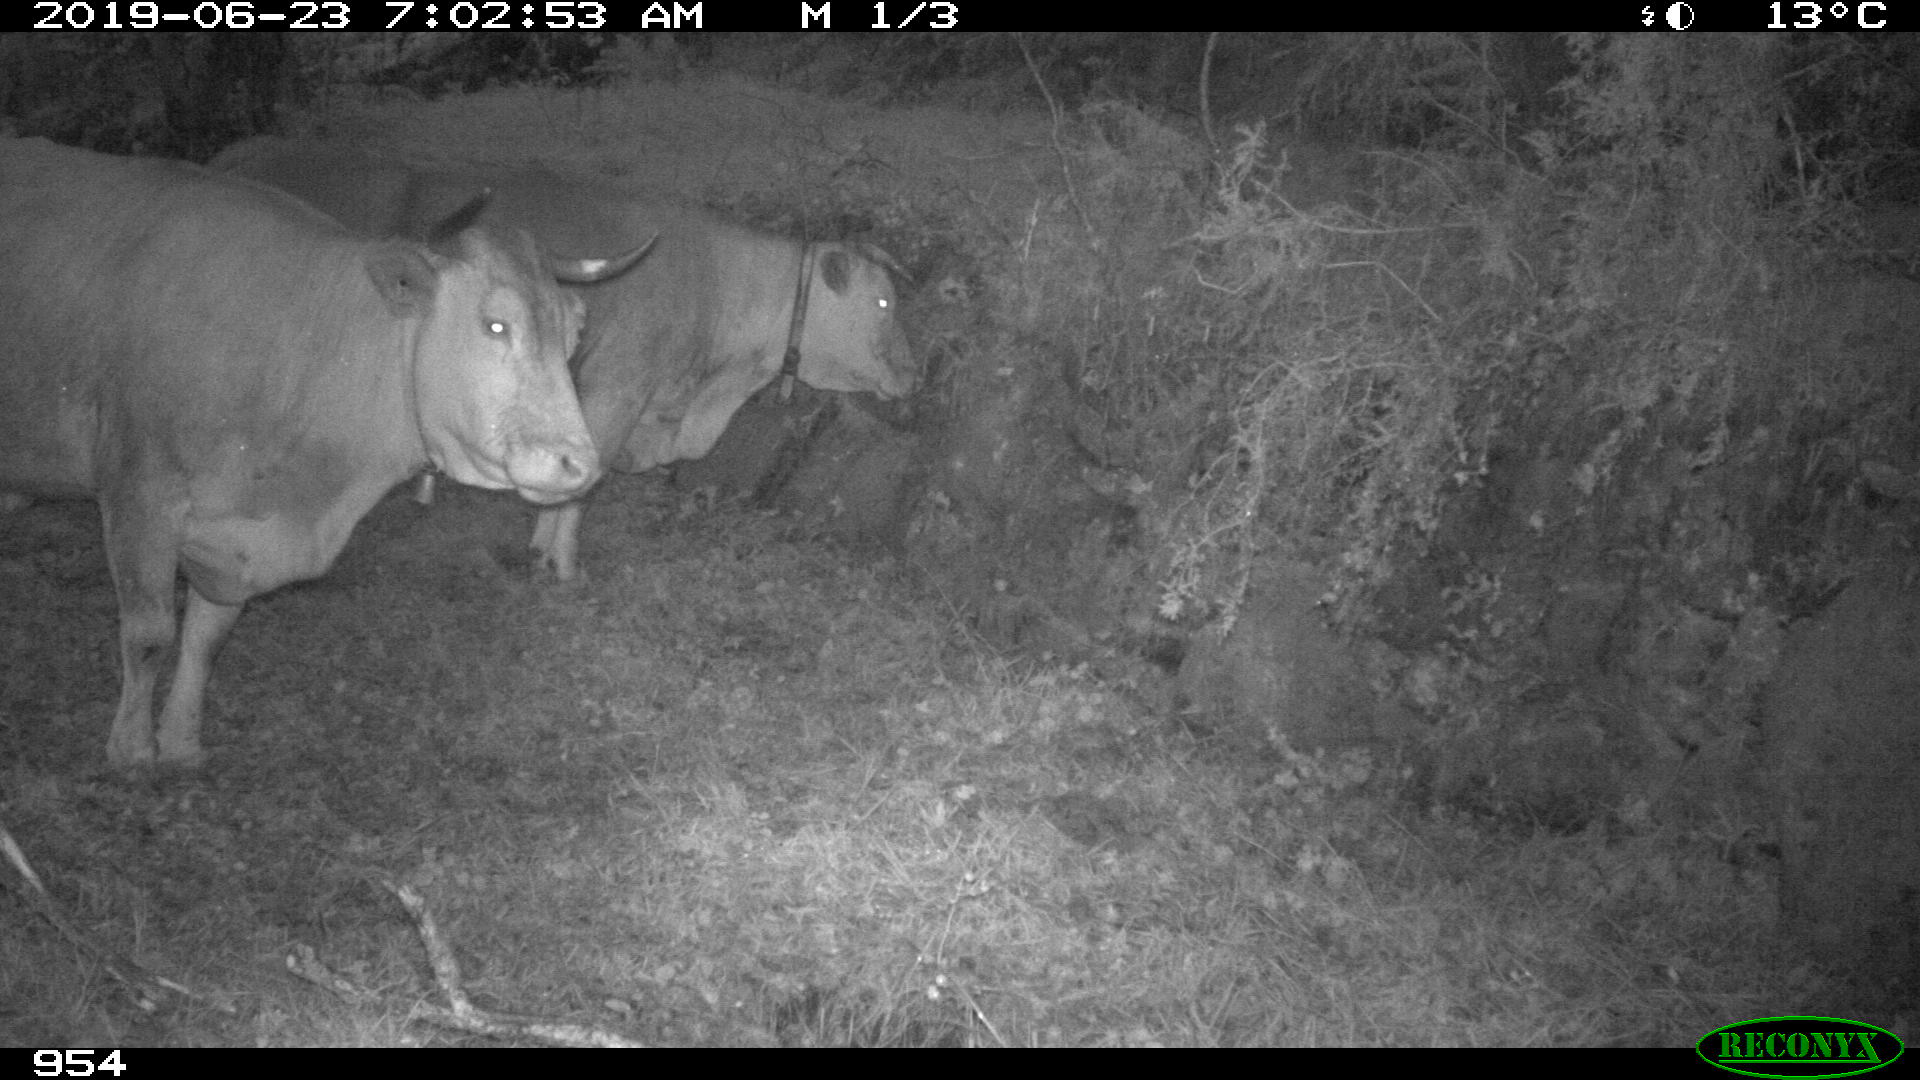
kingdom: Animalia
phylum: Chordata
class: Mammalia
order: Artiodactyla
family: Bovidae
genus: Bos
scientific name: Bos taurus
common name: Domesticated cattle
